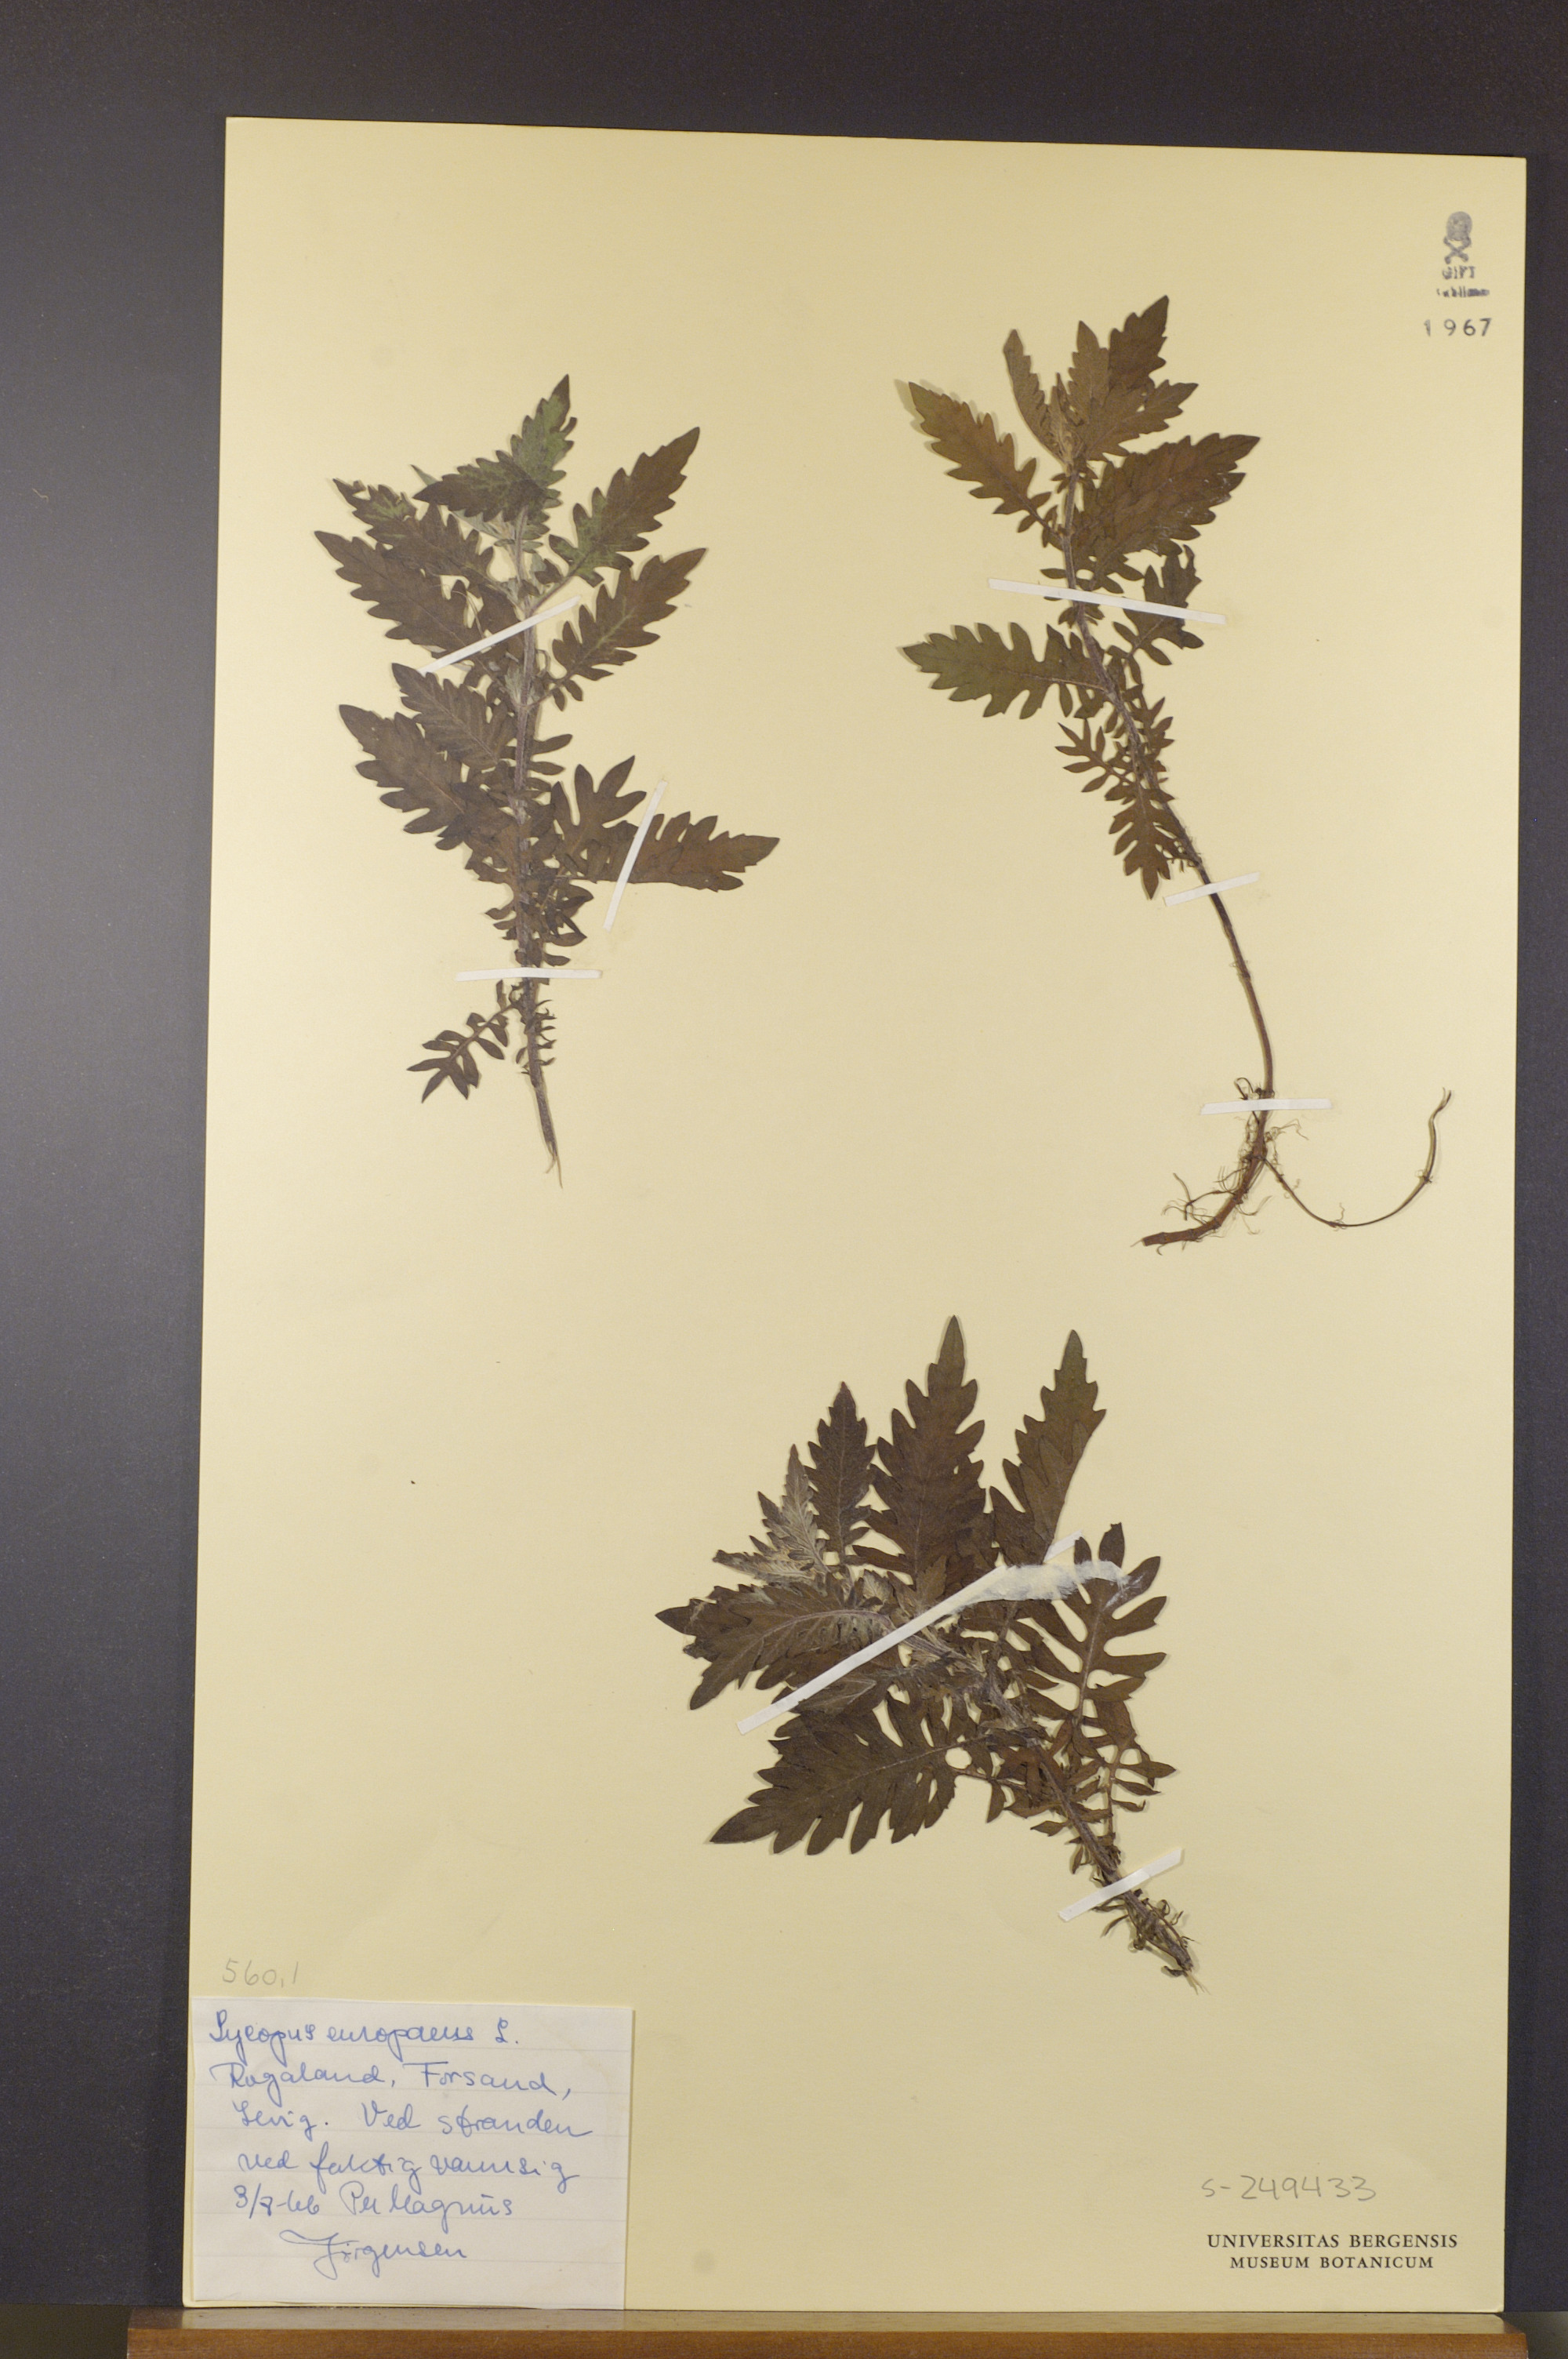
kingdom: Plantae
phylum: Tracheophyta
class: Magnoliopsida
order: Lamiales
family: Lamiaceae
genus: Lycopus
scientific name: Lycopus europaeus
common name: European bugleweed
